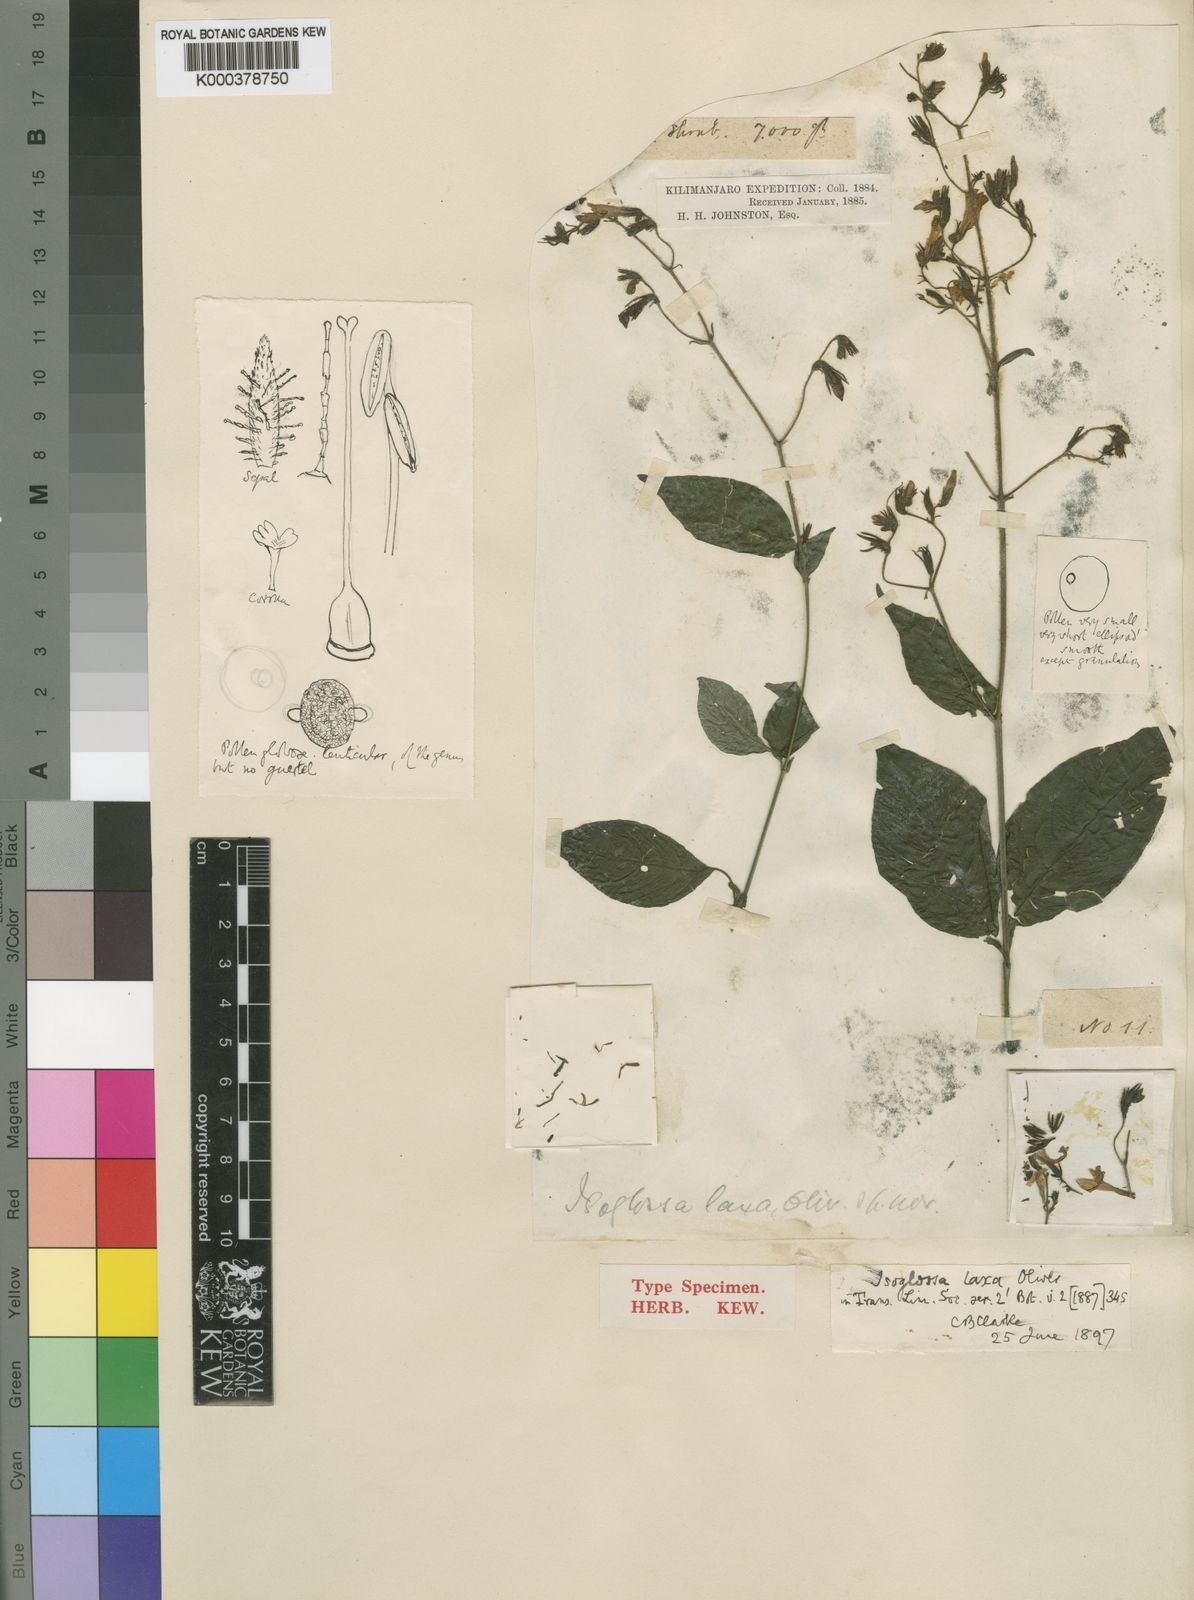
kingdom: Plantae
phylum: Tracheophyta
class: Magnoliopsida
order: Lamiales
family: Acanthaceae
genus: Isoglossa
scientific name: Isoglossa laxa
